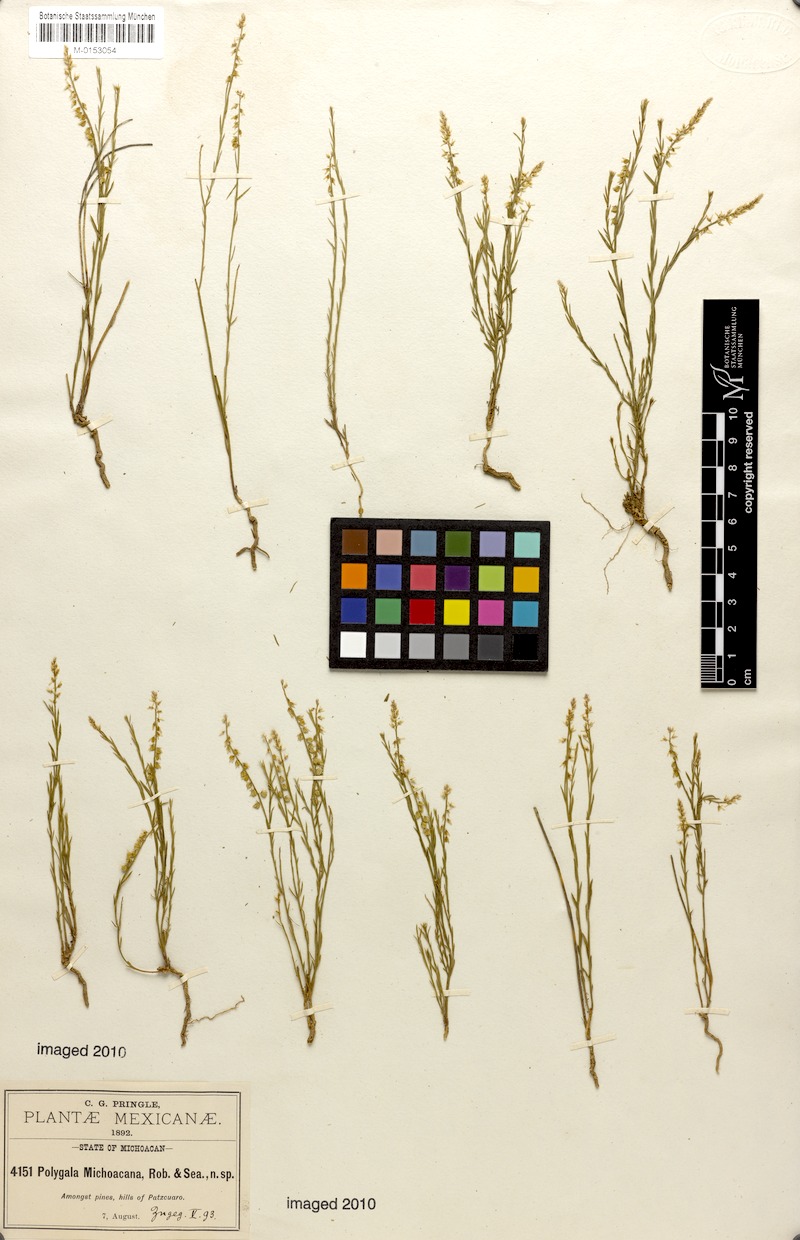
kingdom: Plantae
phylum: Tracheophyta
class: Magnoliopsida
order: Fabales
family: Polygalaceae
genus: Polygala
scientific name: Polygala mexicana
